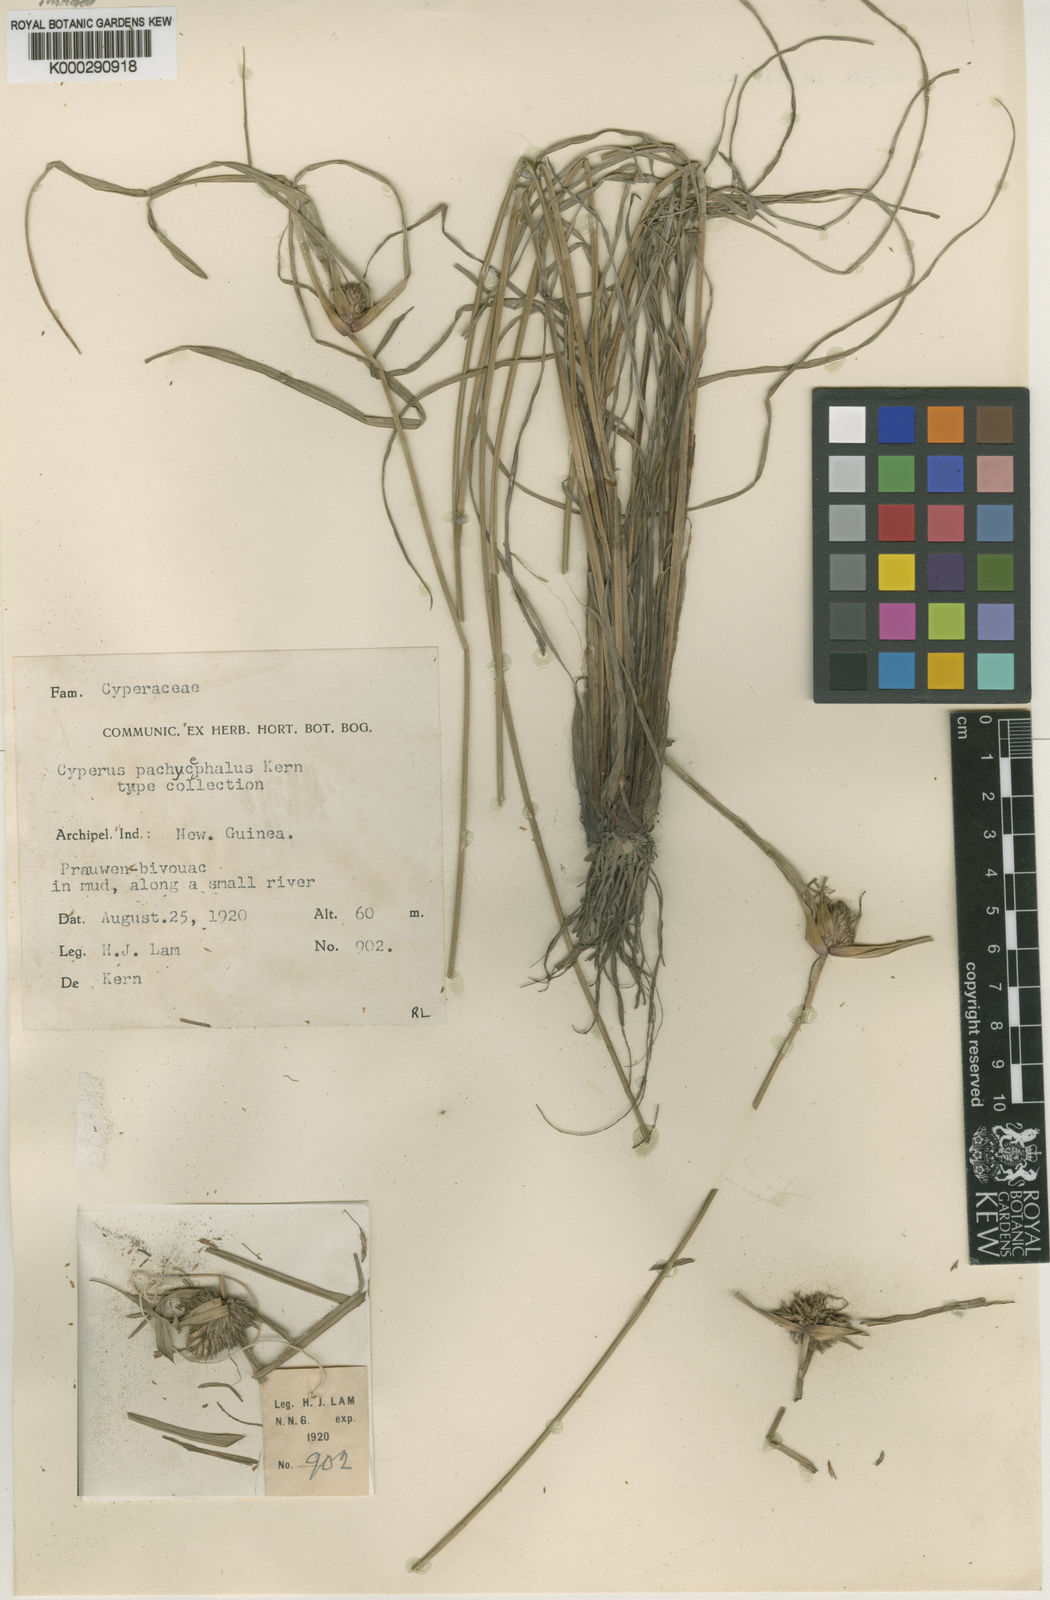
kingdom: Plantae
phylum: Tracheophyta
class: Liliopsida
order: Poales
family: Cyperaceae
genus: Cyperus
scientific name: Cyperus pachycephalus
